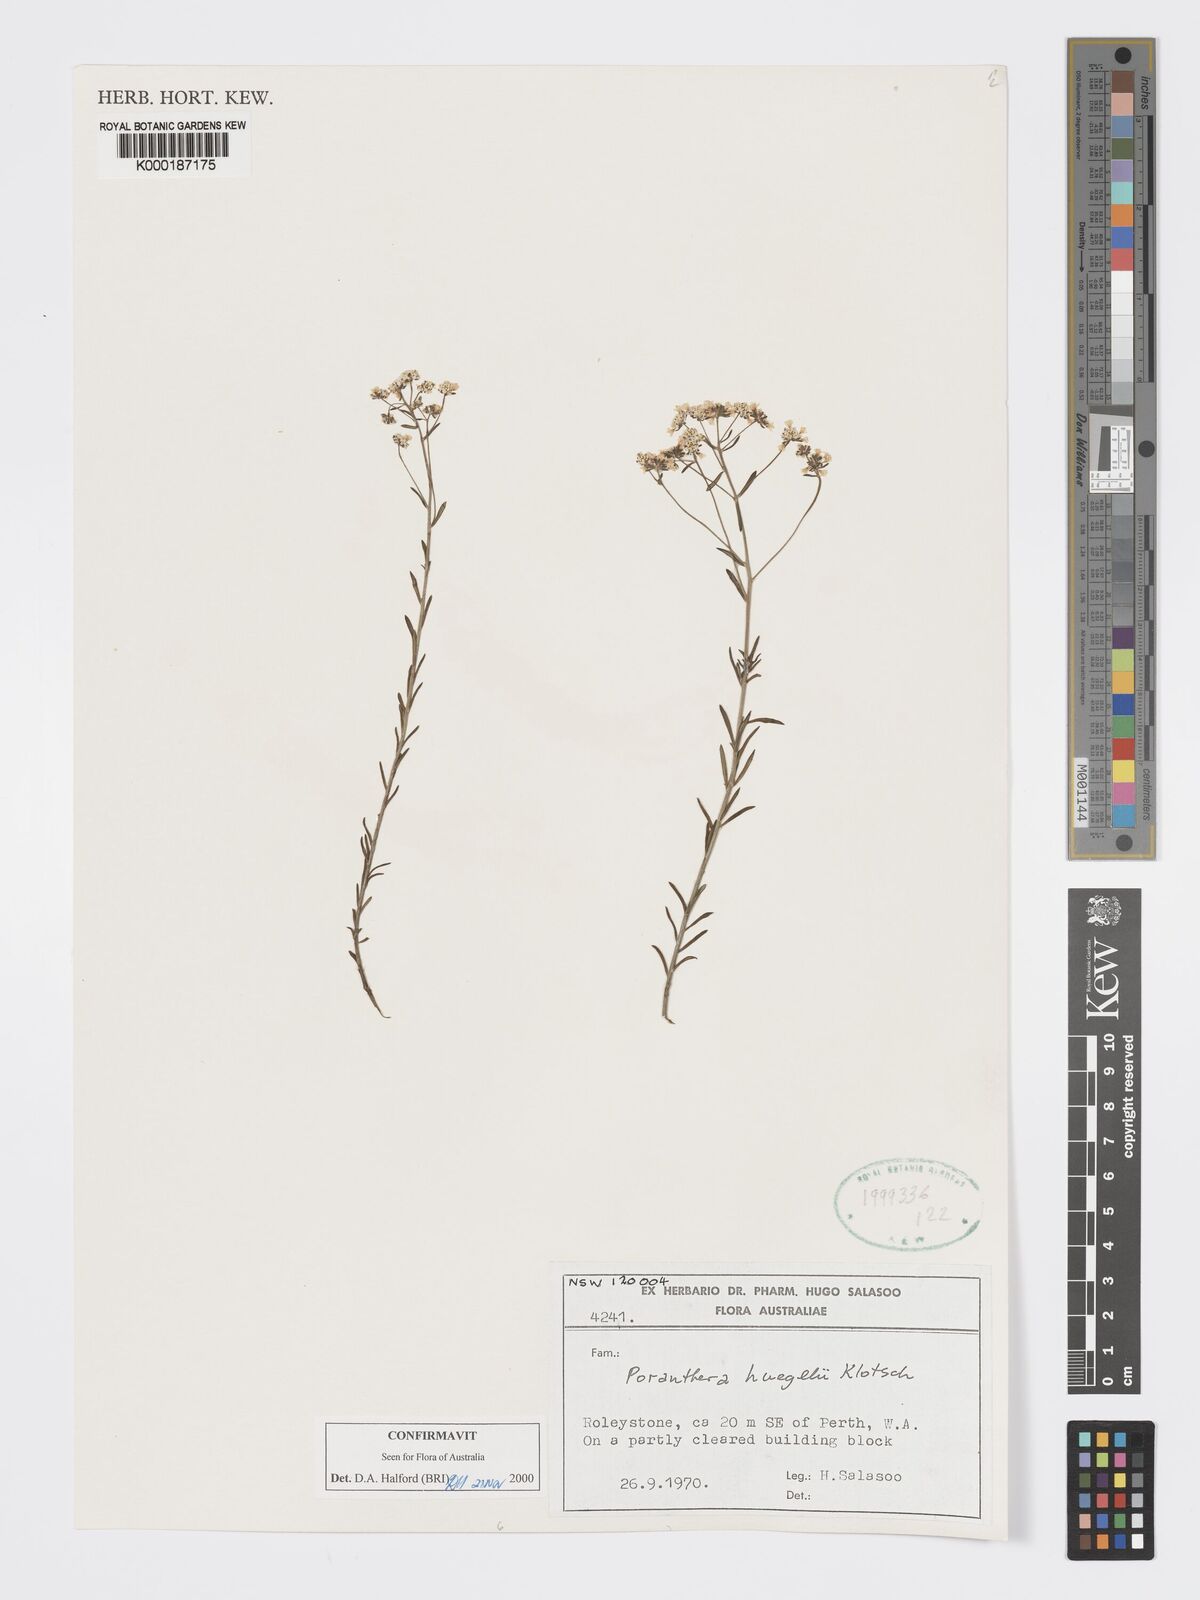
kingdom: Plantae
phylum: Tracheophyta
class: Magnoliopsida
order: Malpighiales
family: Phyllanthaceae
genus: Poranthera
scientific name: Poranthera huegelii
